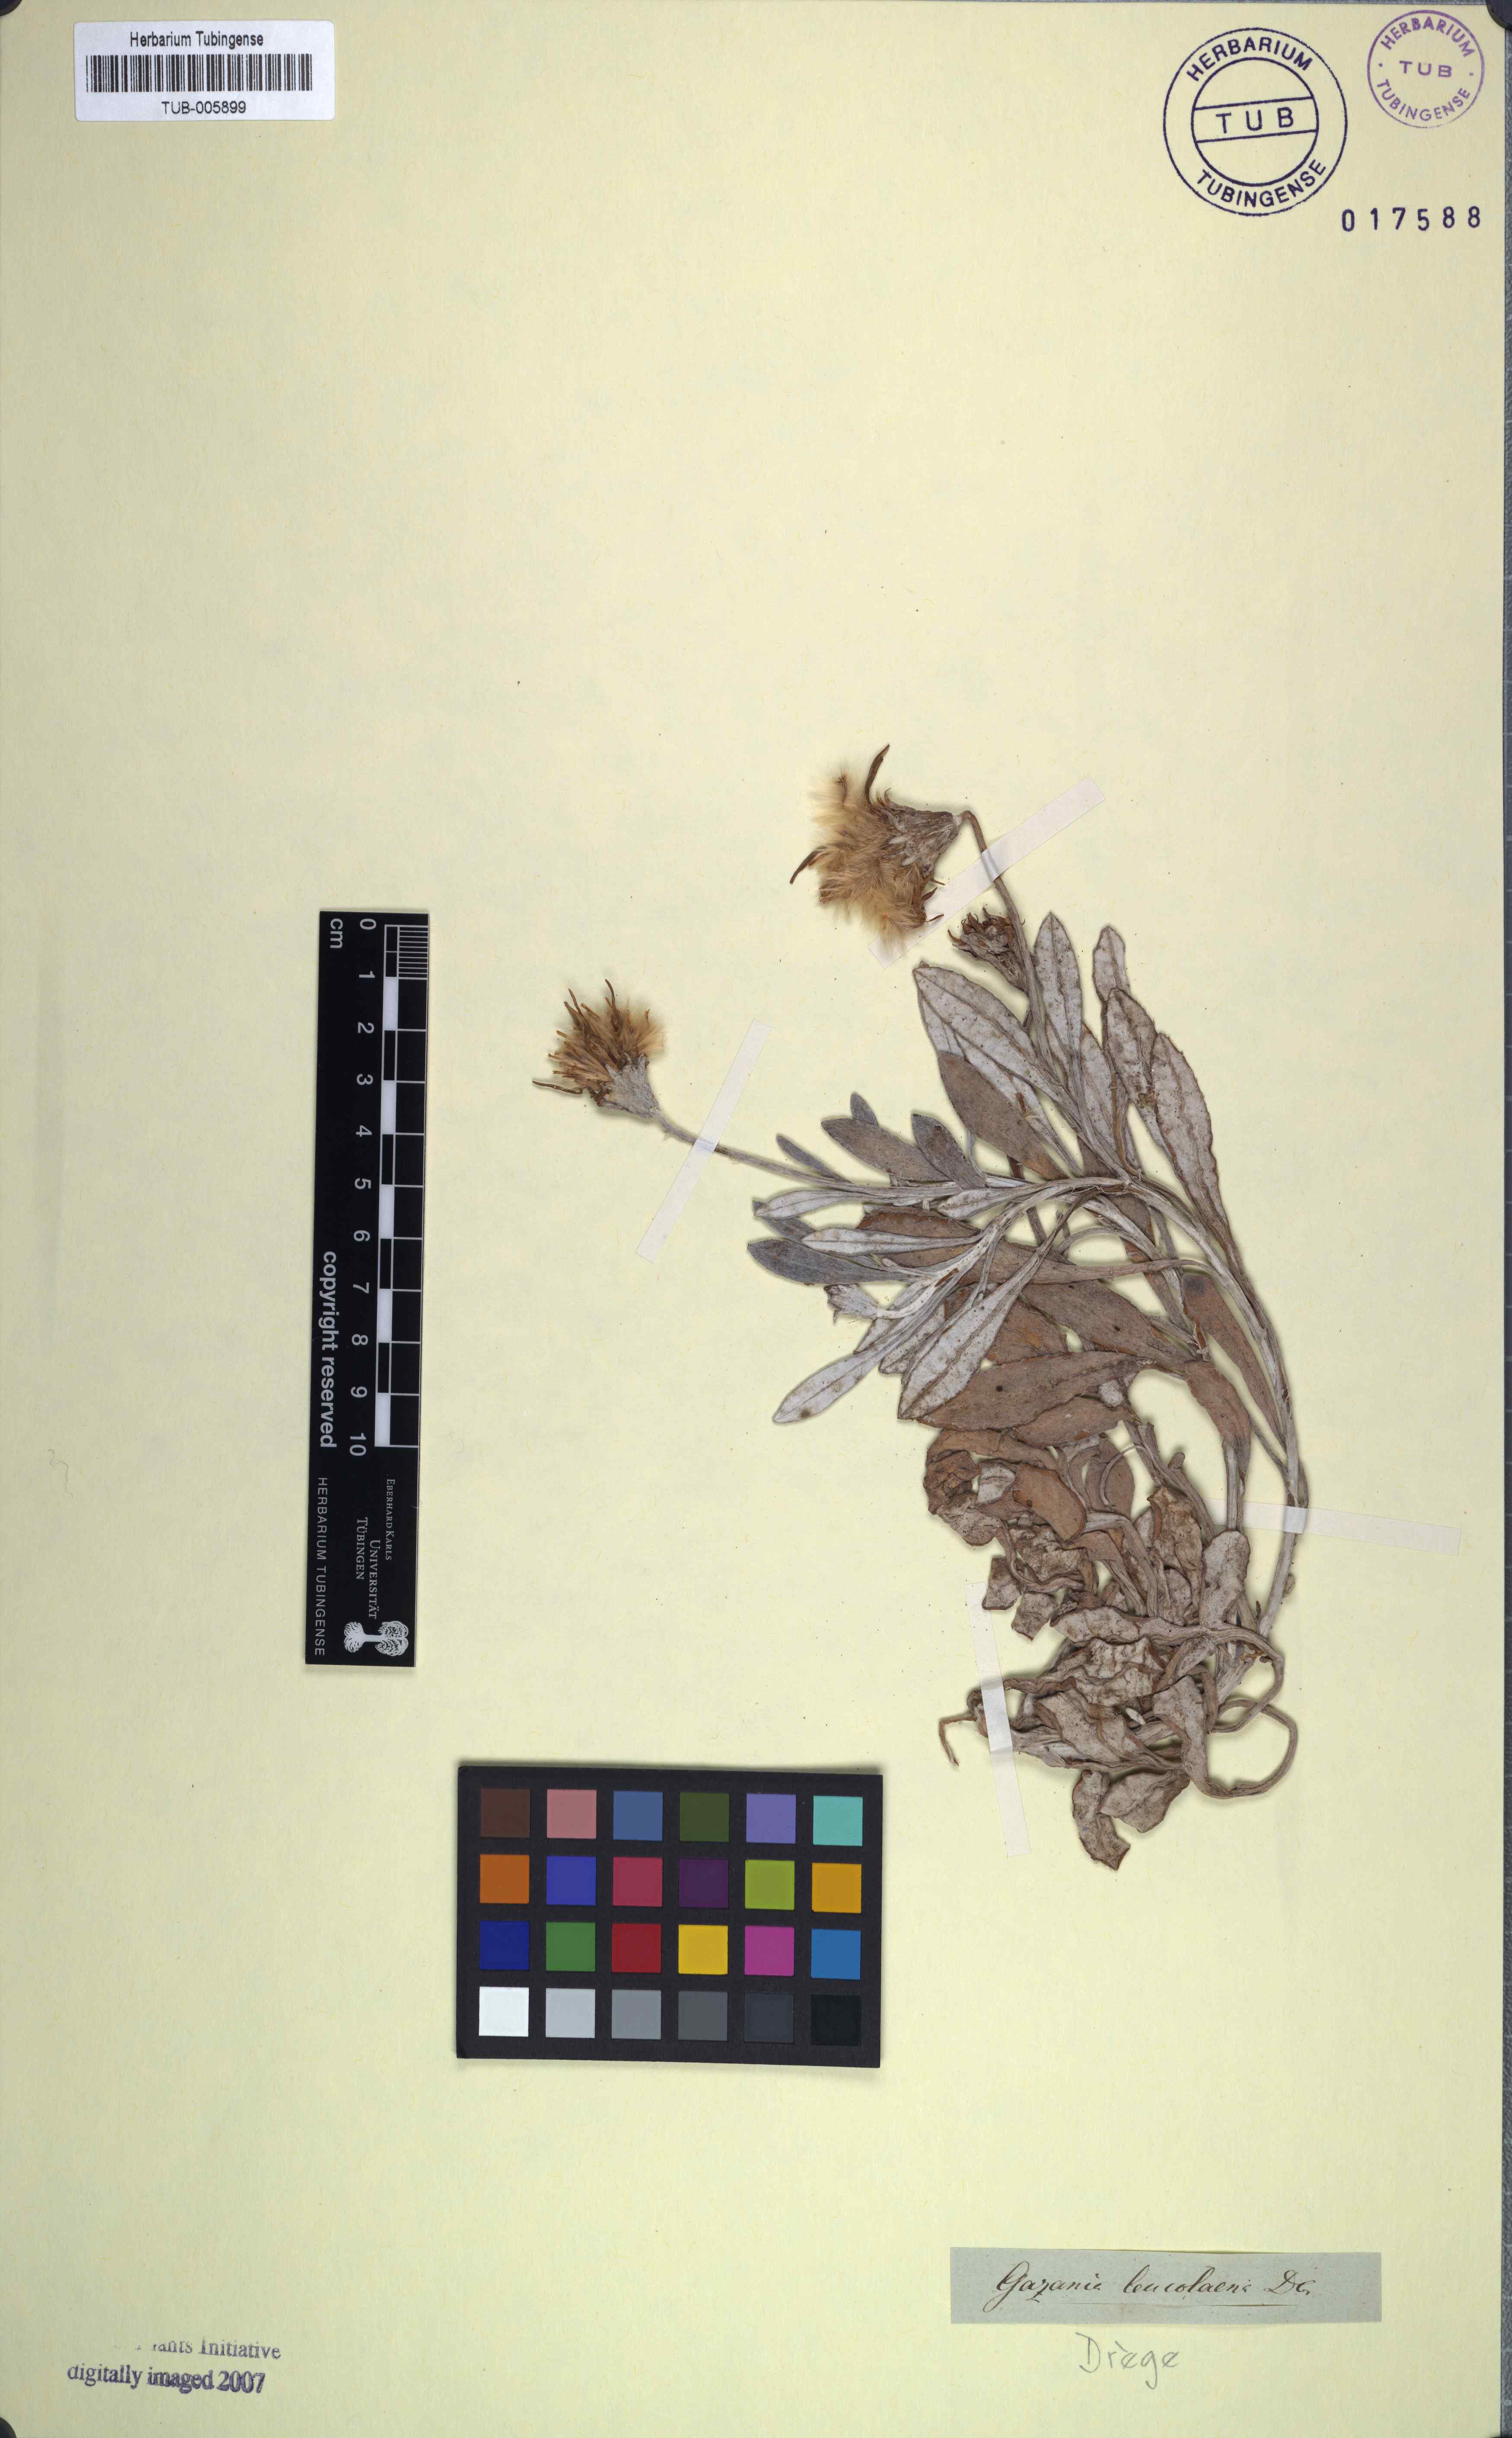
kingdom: Plantae
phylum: Tracheophyta
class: Magnoliopsida
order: Asterales
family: Asteraceae
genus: Gazania
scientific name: Gazania rigens
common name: Treasureflower
